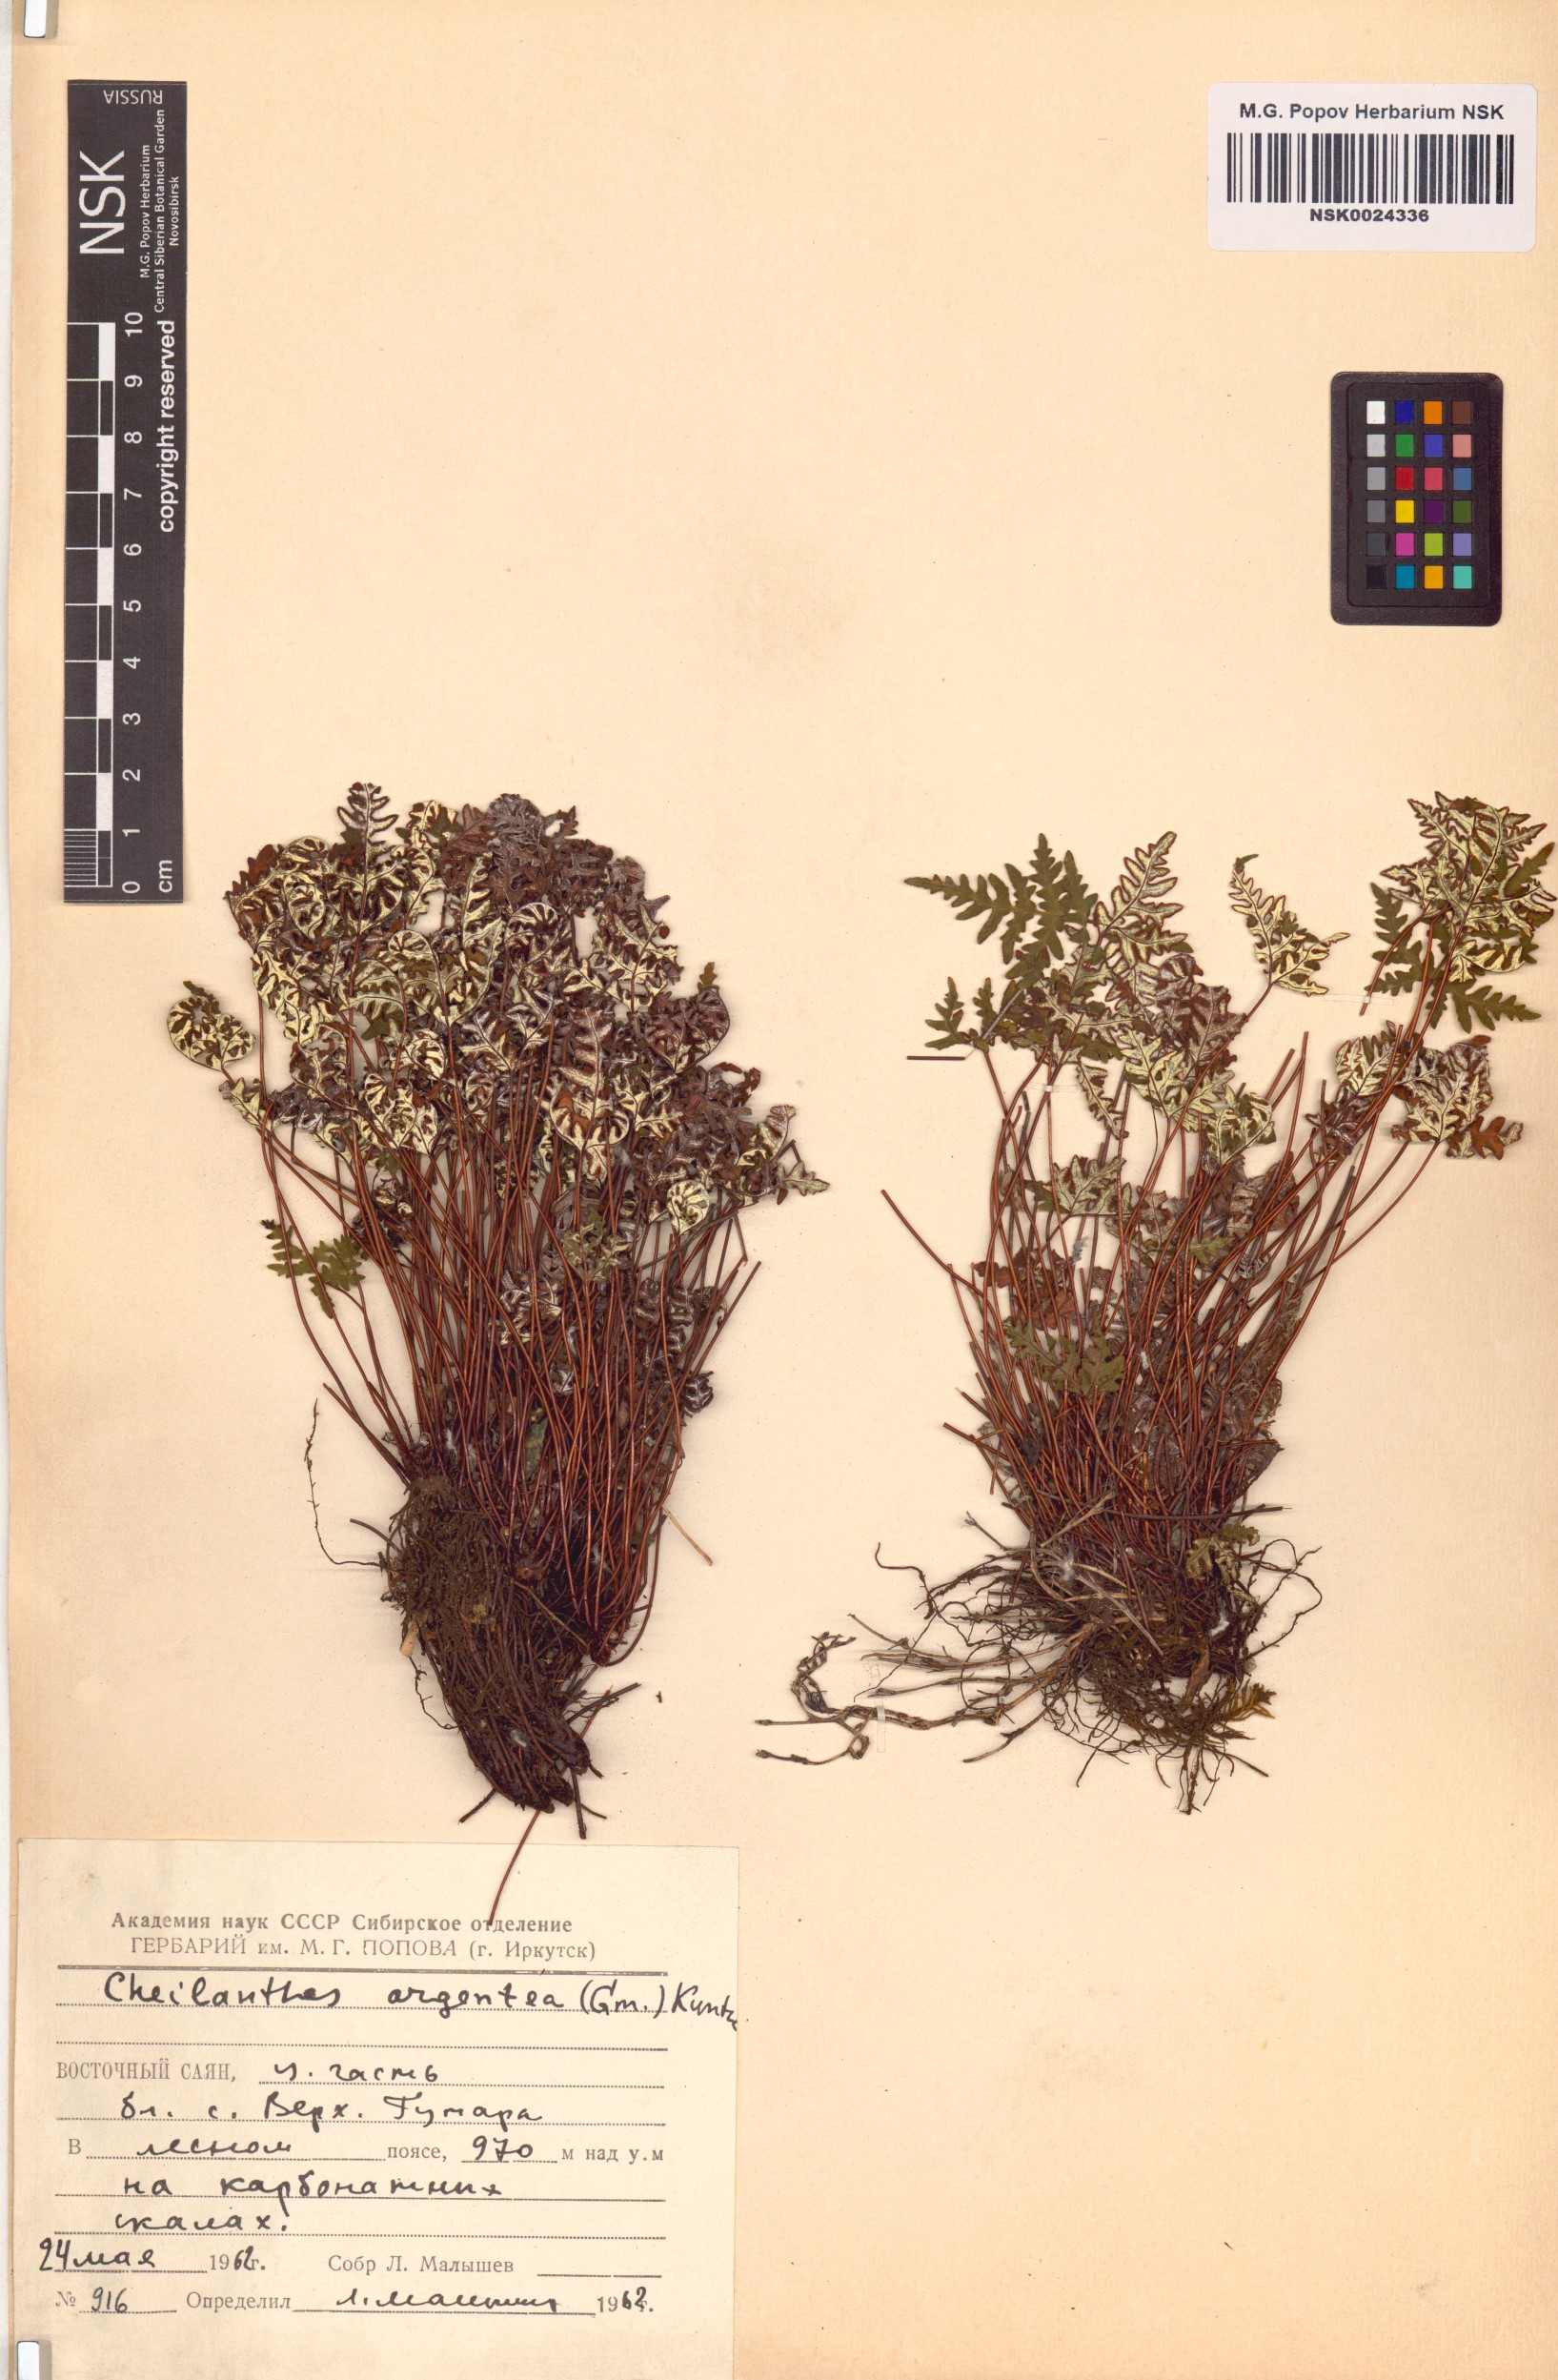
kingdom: Plantae
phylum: Tracheophyta
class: Polypodiopsida
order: Polypodiales
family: Pteridaceae
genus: Aleuritopteris
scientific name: Aleuritopteris argentea
